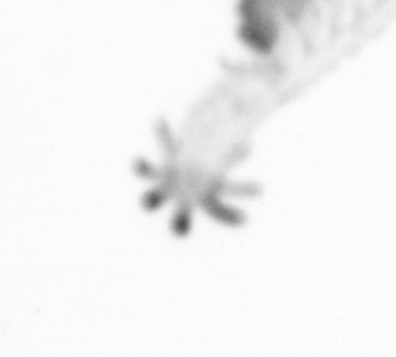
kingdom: Animalia
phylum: Annelida
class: Polychaeta
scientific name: Polychaeta
